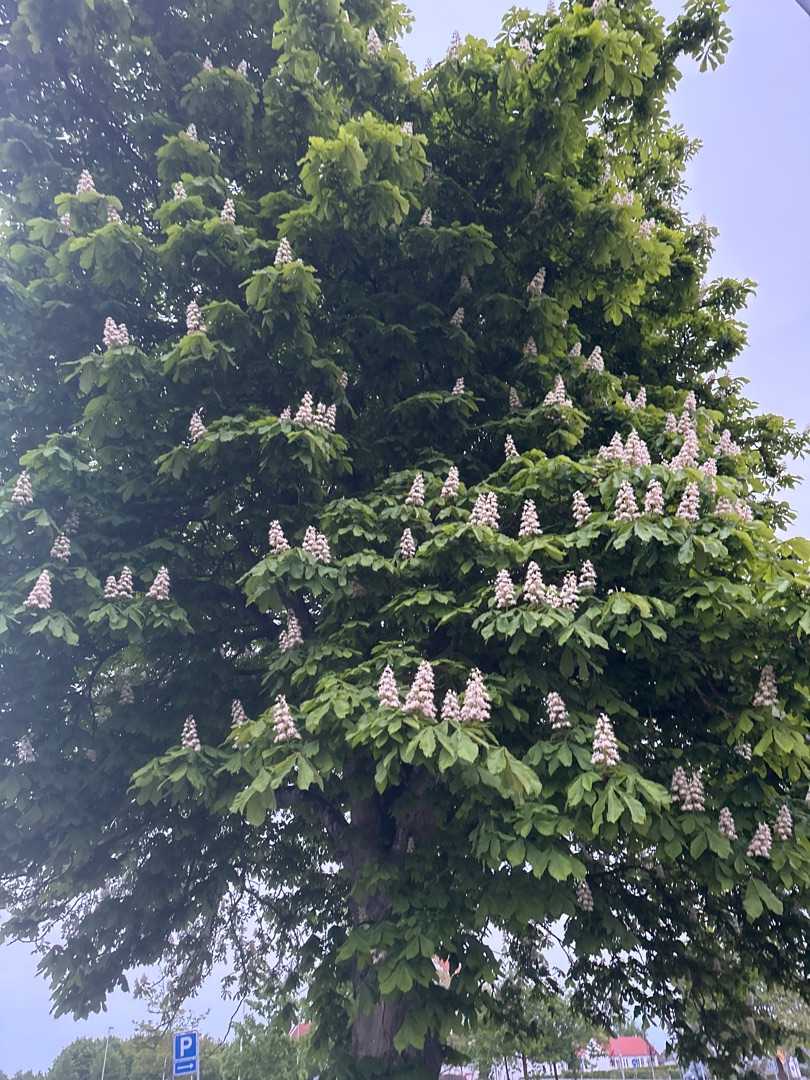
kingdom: Plantae
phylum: Tracheophyta
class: Magnoliopsida
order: Sapindales
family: Sapindaceae
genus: Aesculus
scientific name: Aesculus hippocastanum
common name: Hestekastanie
